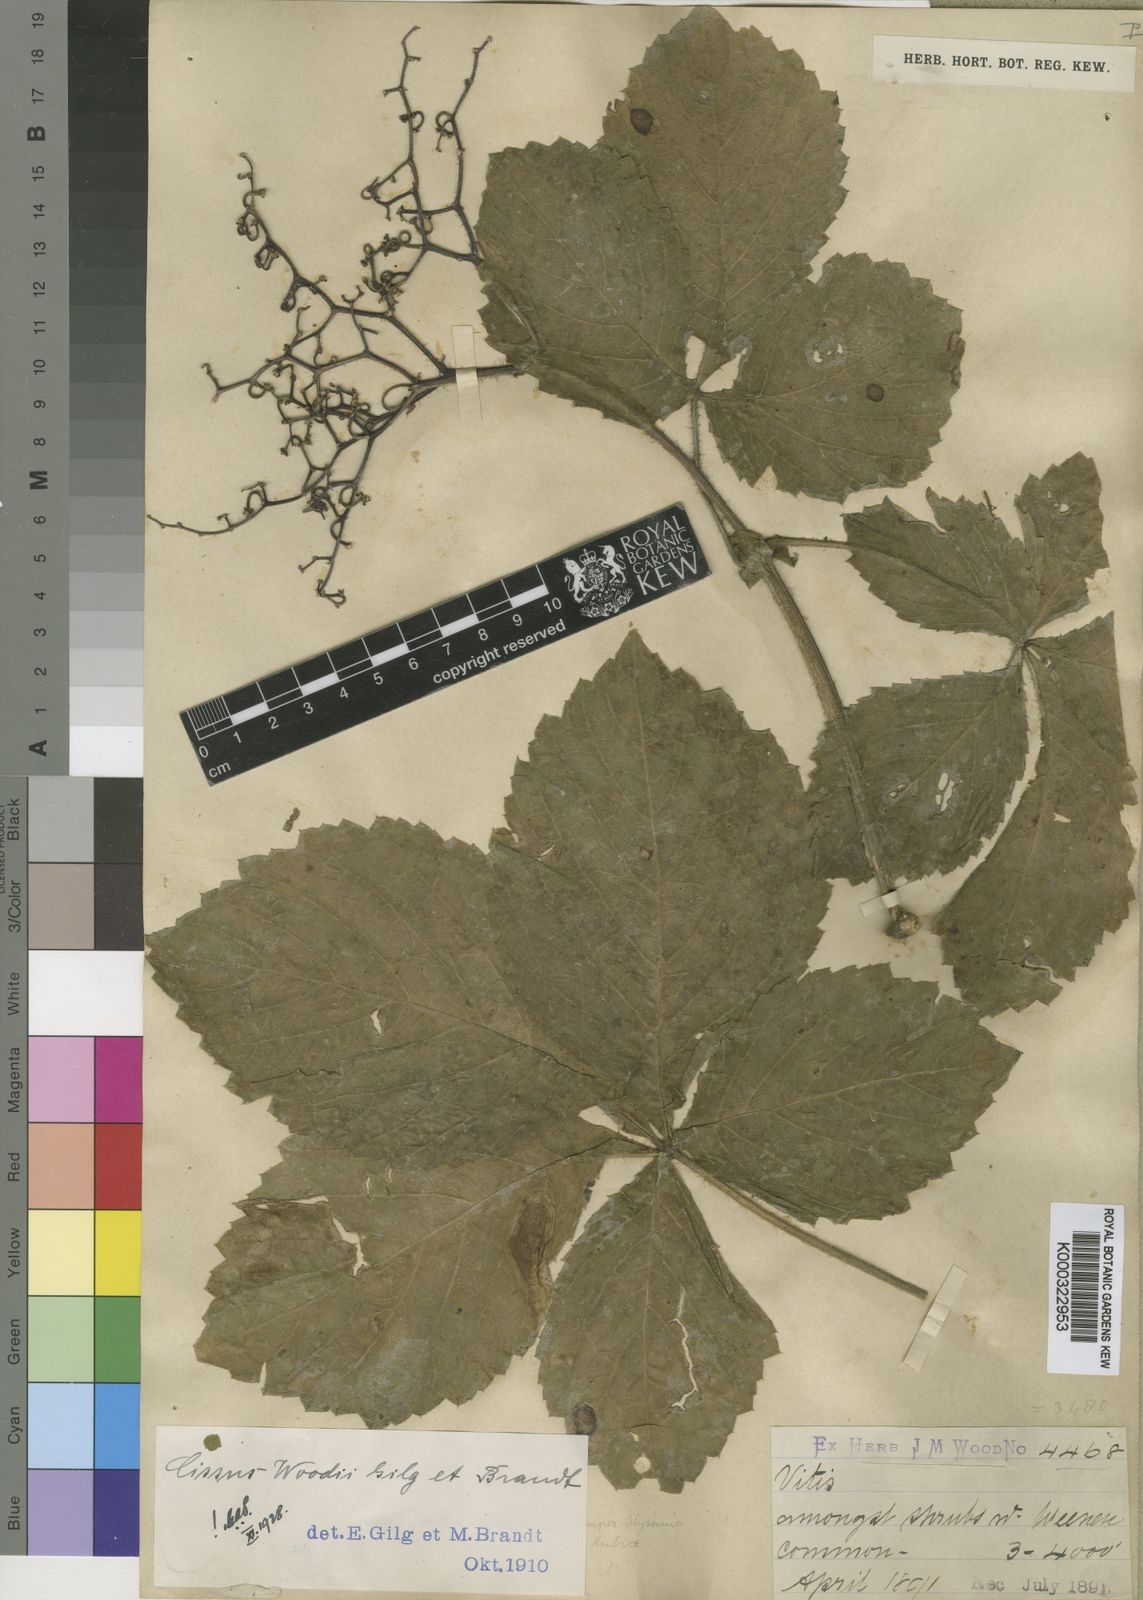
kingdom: Plantae
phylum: Tracheophyta
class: Magnoliopsida
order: Vitales
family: Vitaceae
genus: Cyphostemma
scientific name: Cyphostemma woodii
